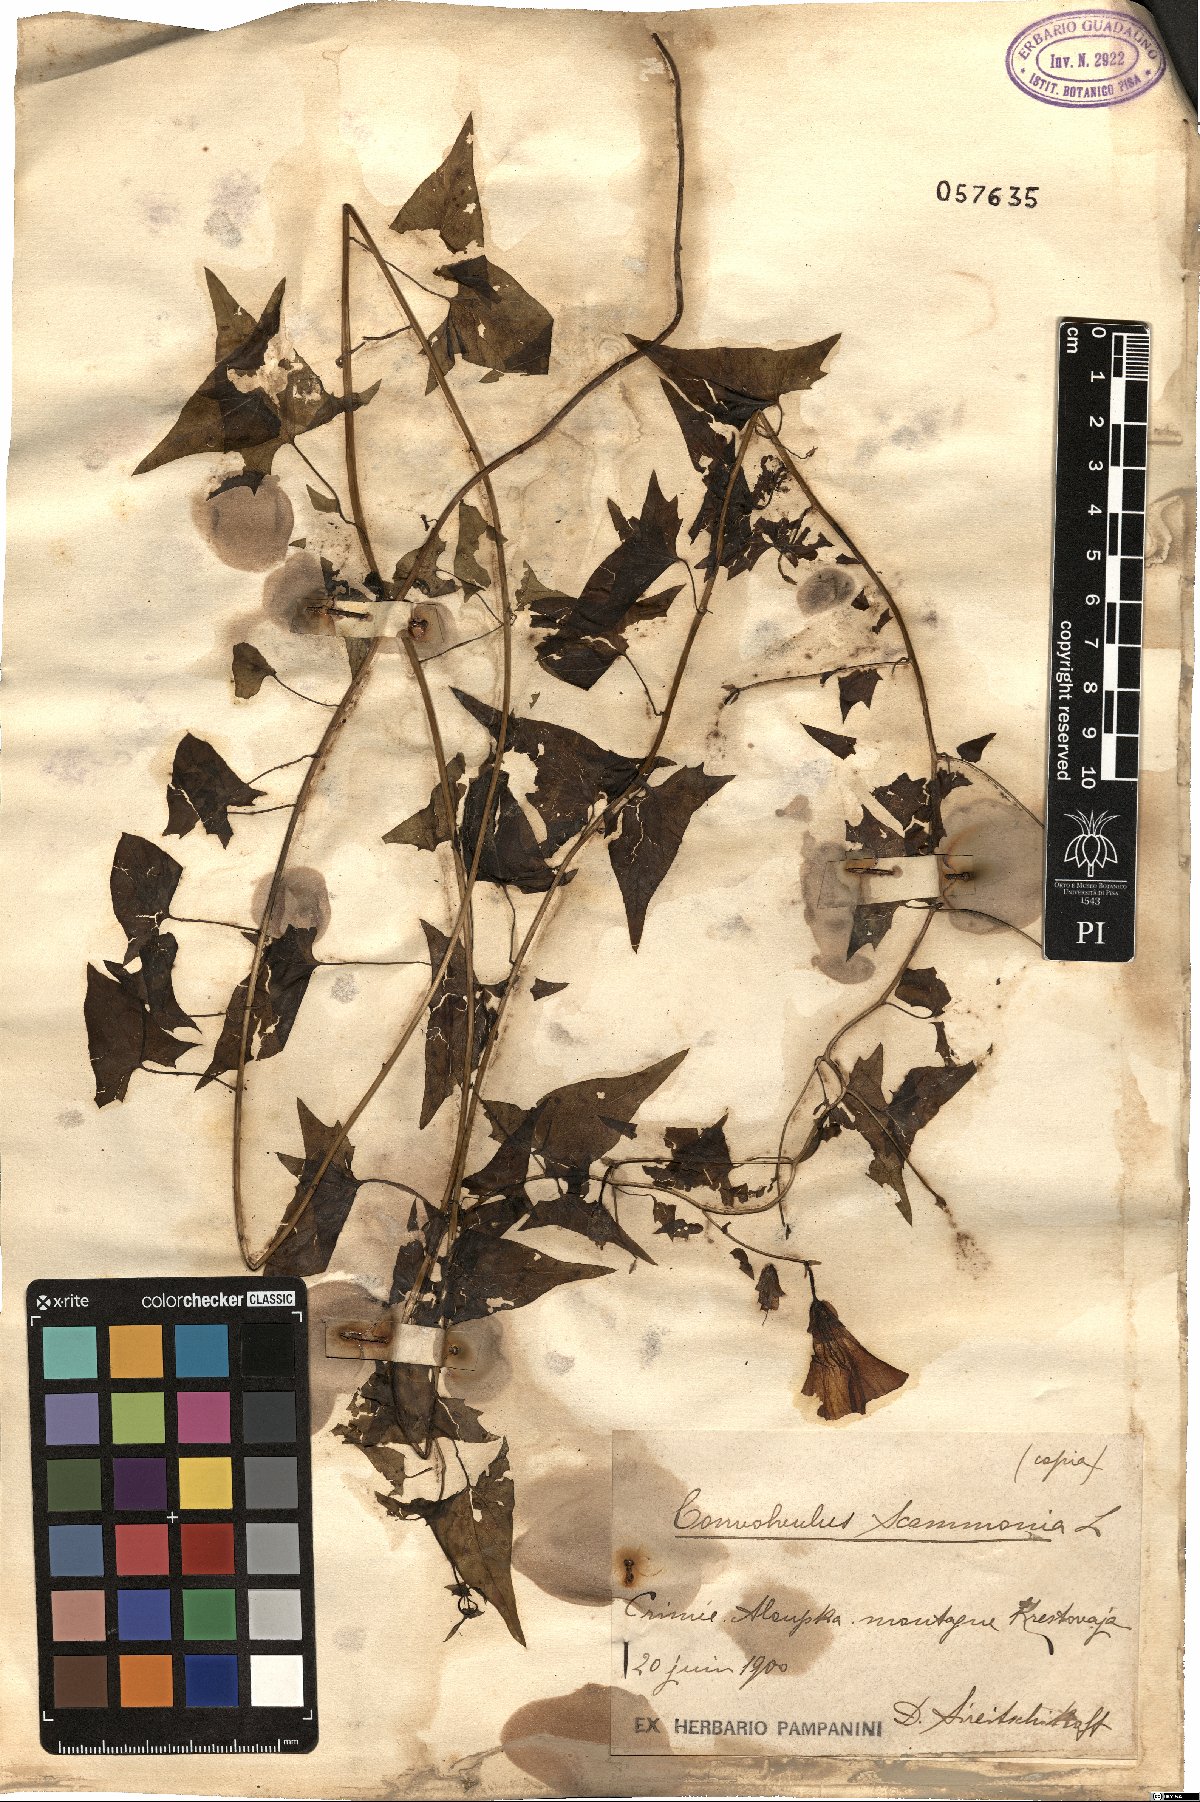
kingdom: Plantae
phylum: Tracheophyta
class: Magnoliopsida
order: Solanales
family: Convolvulaceae
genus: Convolvulus
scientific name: Convolvulus scammonia
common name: Scammony
